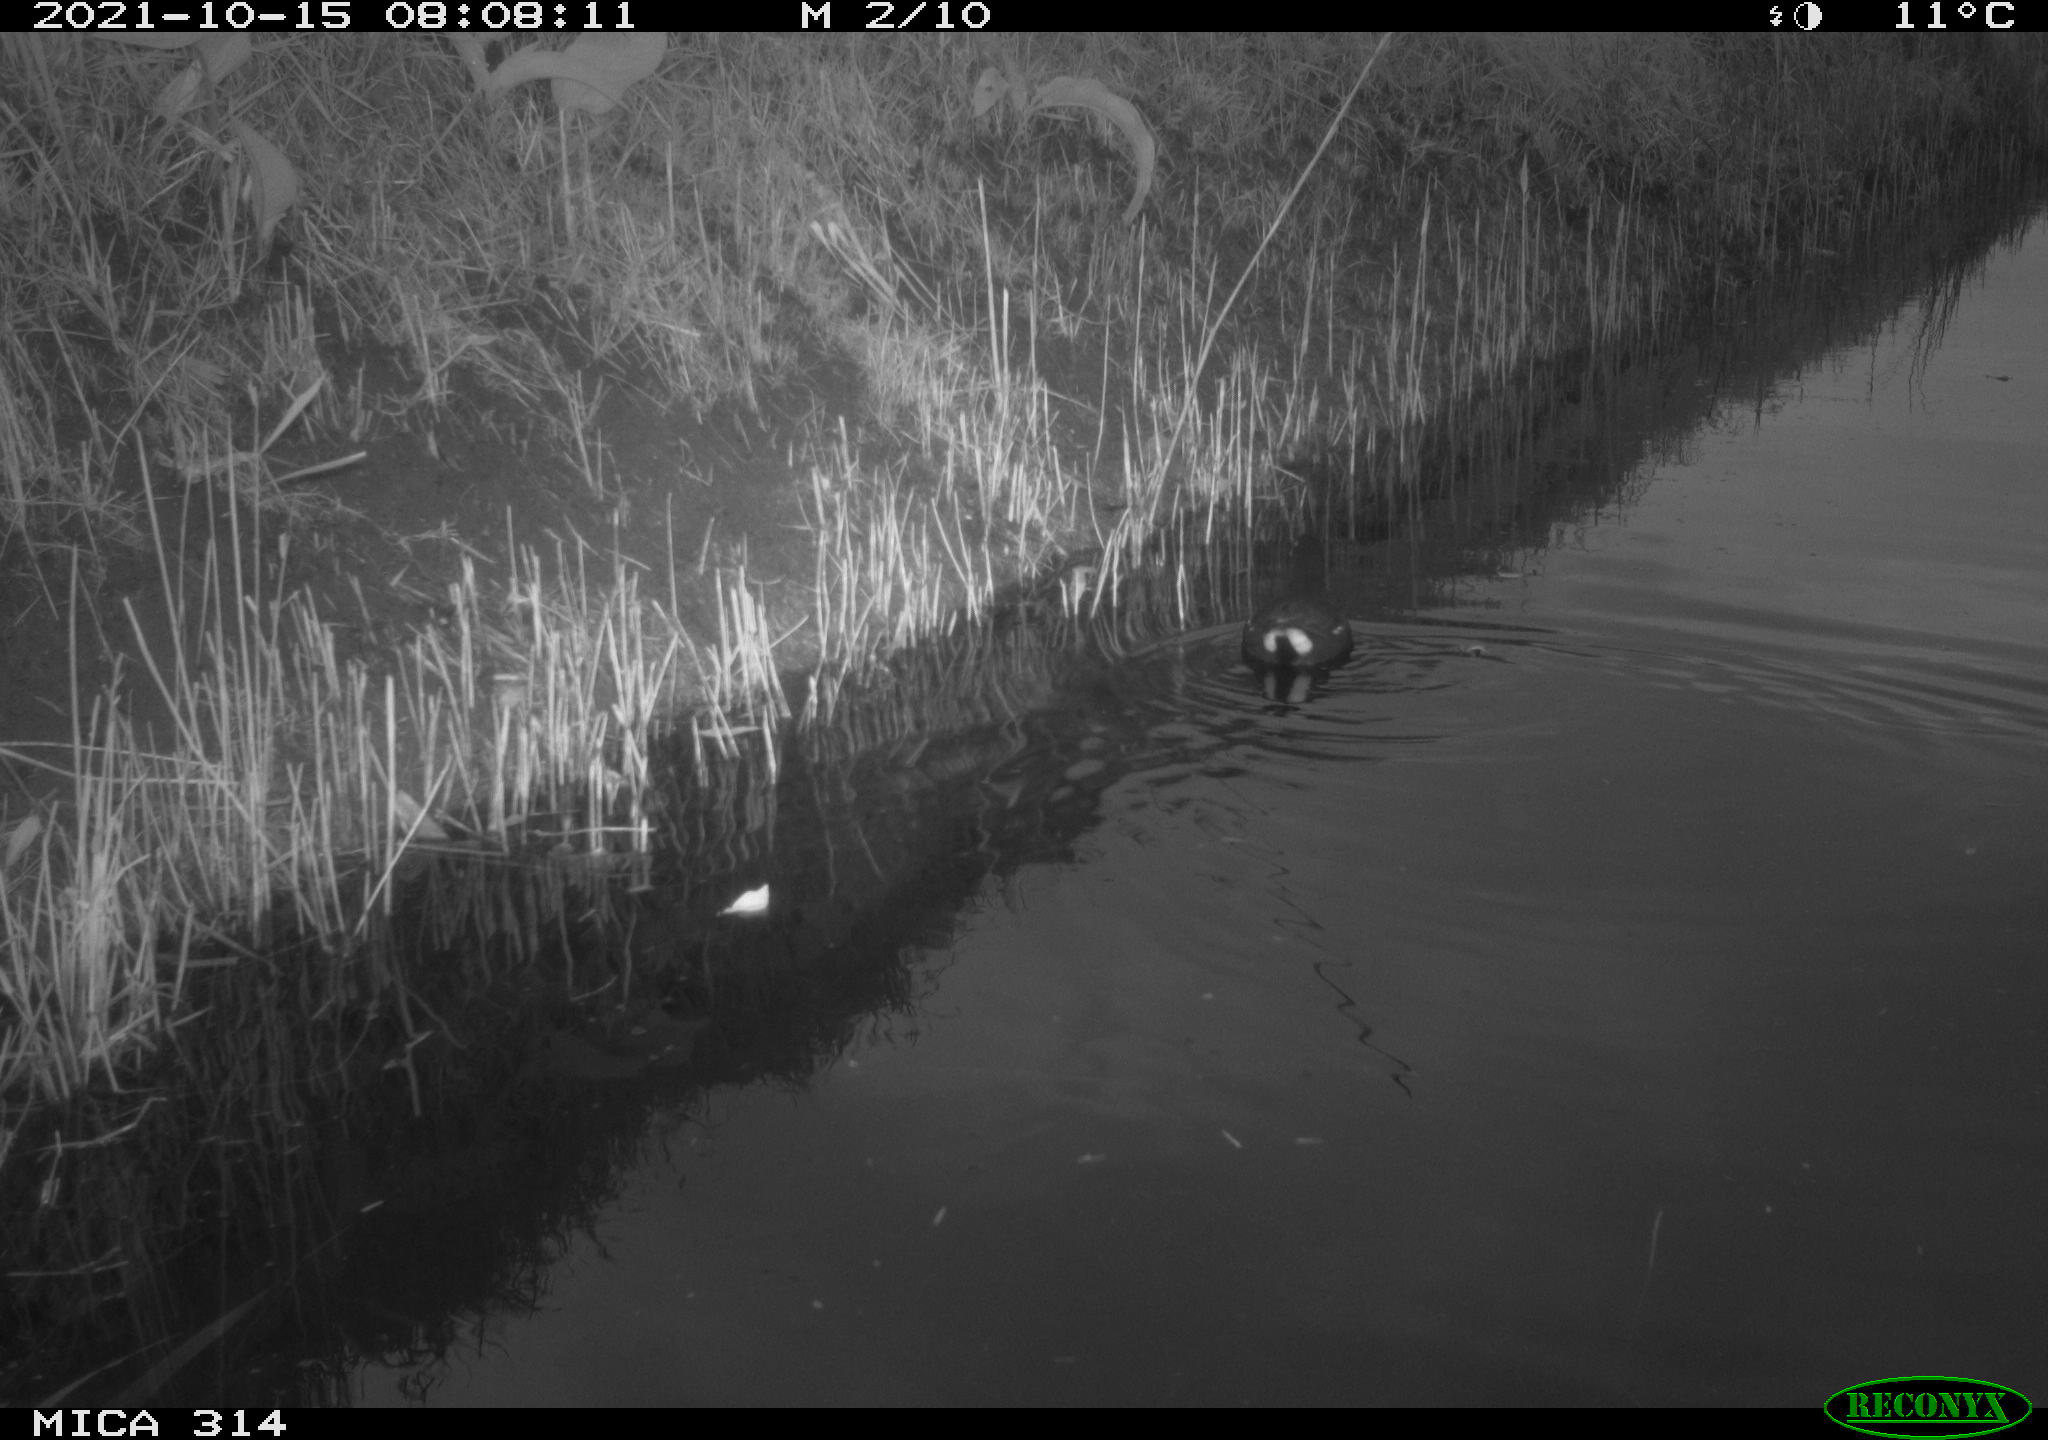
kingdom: Animalia
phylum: Chordata
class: Aves
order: Gruiformes
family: Rallidae
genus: Gallinula
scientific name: Gallinula chloropus
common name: Common moorhen
